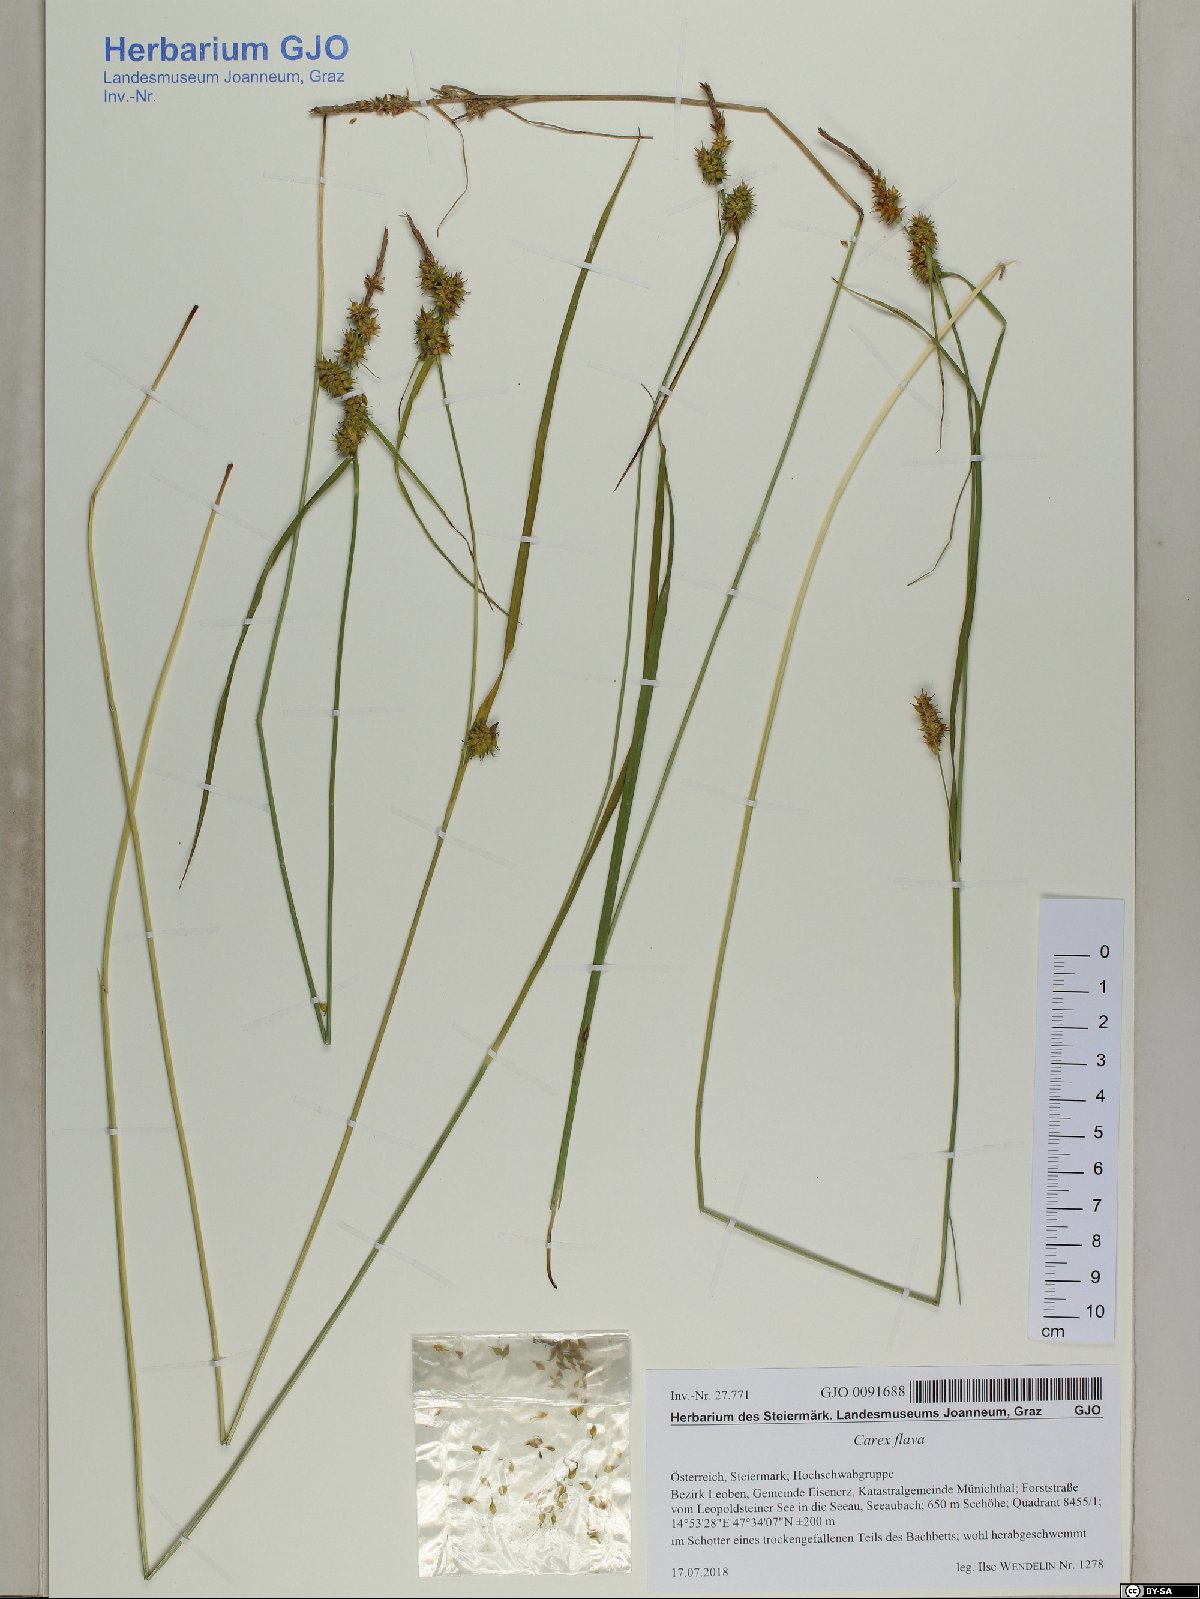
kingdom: Plantae
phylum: Tracheophyta
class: Liliopsida
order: Poales
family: Cyperaceae
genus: Carex
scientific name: Carex flava
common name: Large yellow-sedge
